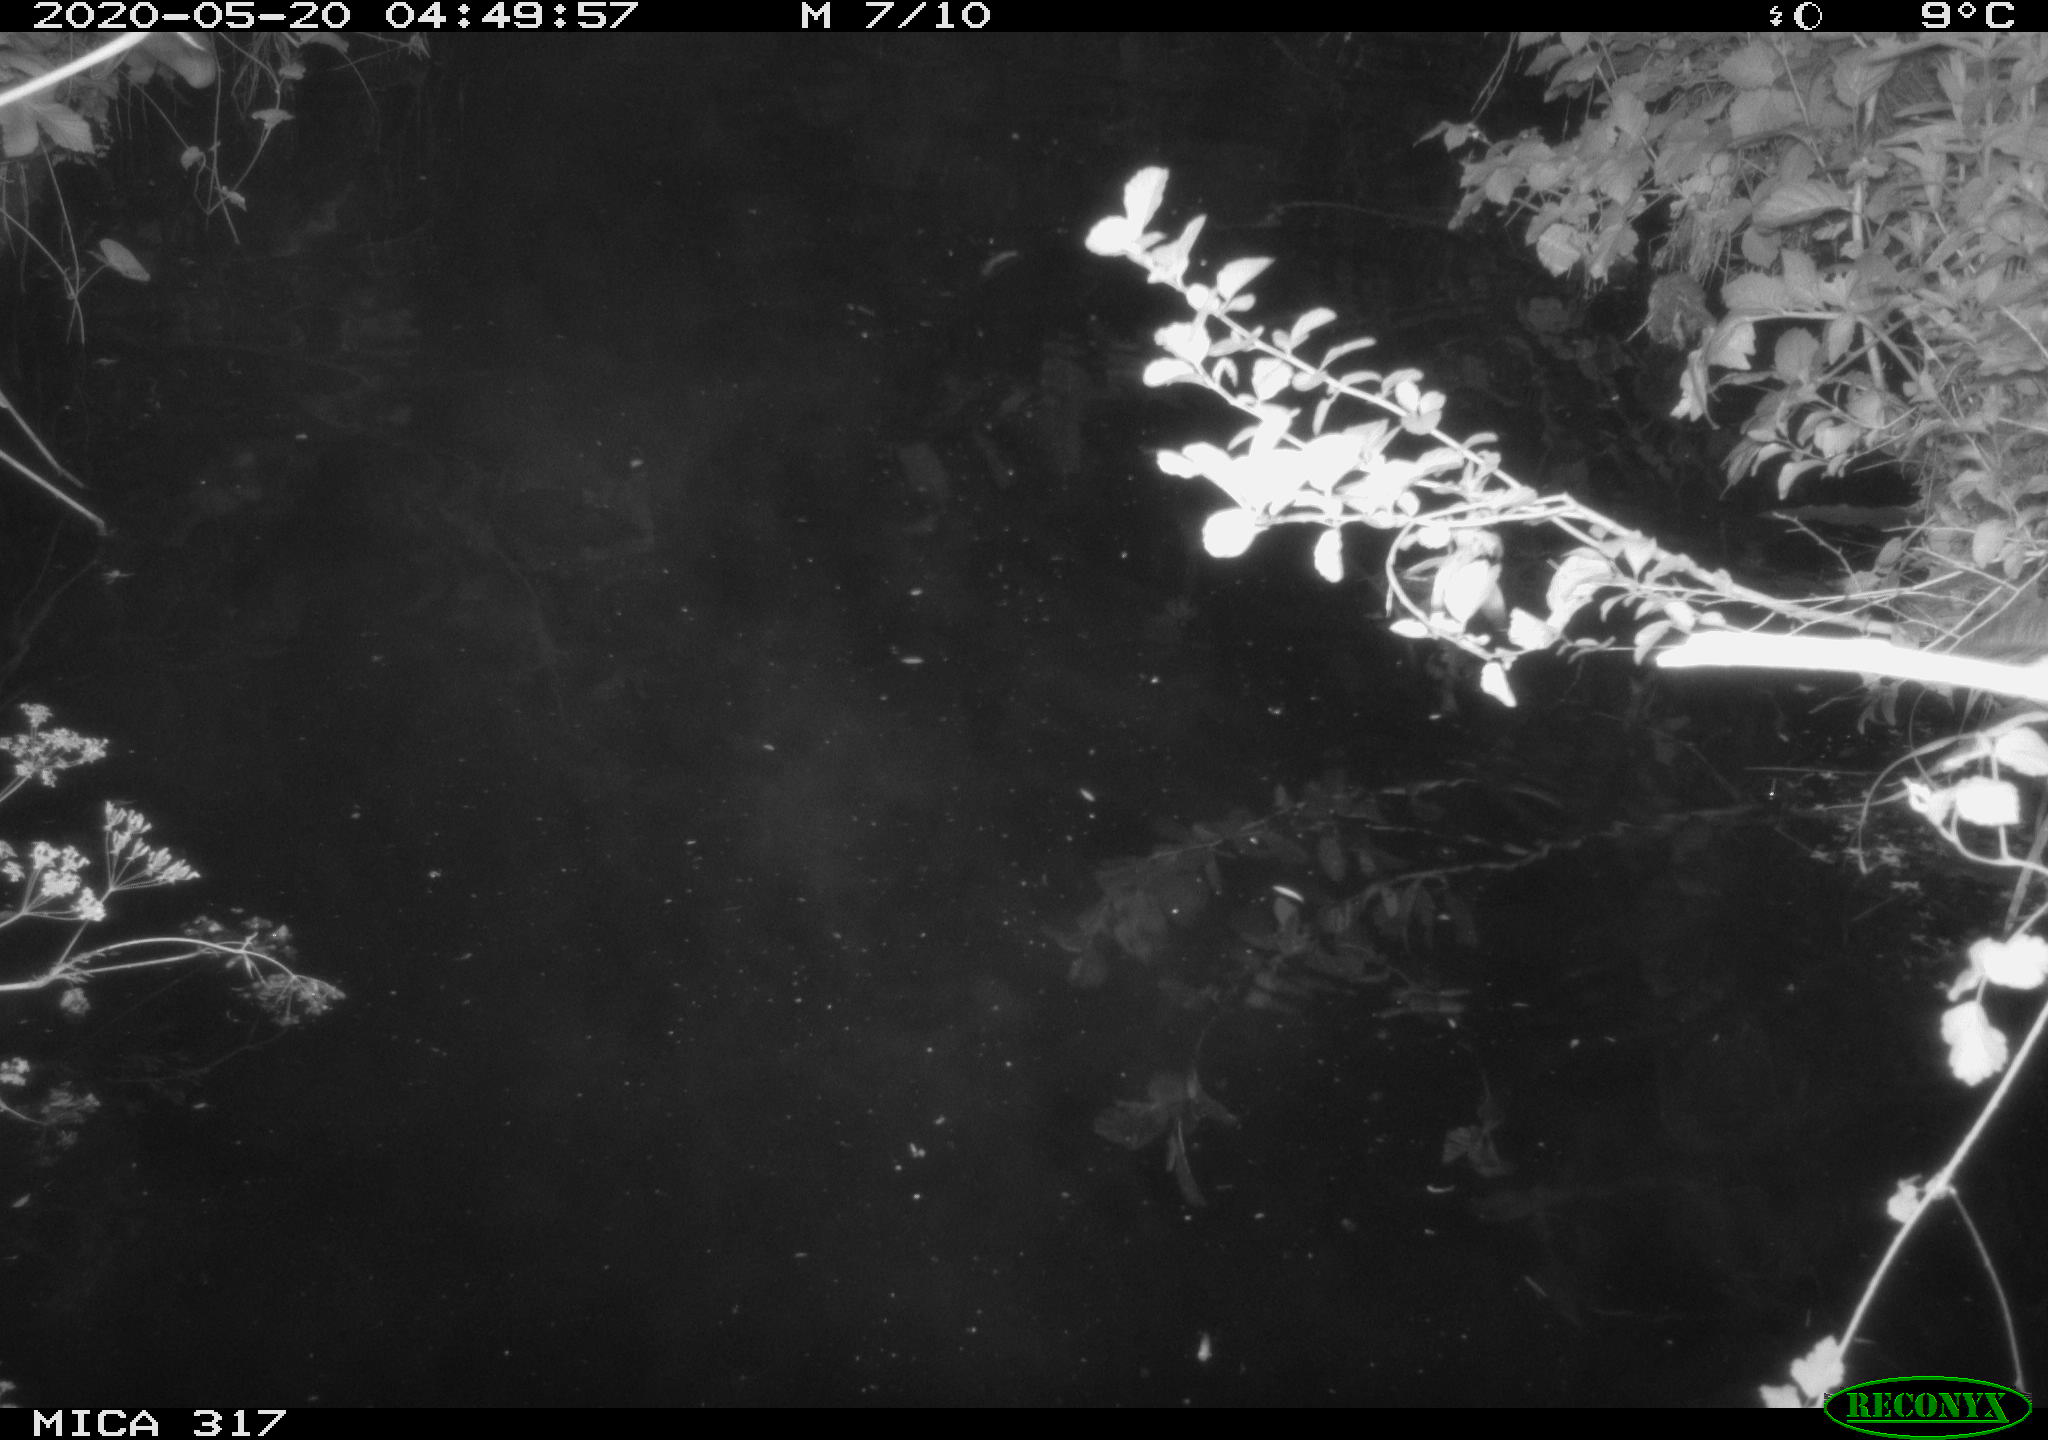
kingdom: Animalia
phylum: Chordata
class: Aves
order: Gruiformes
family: Rallidae
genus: Fulica
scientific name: Fulica atra
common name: Eurasian coot
